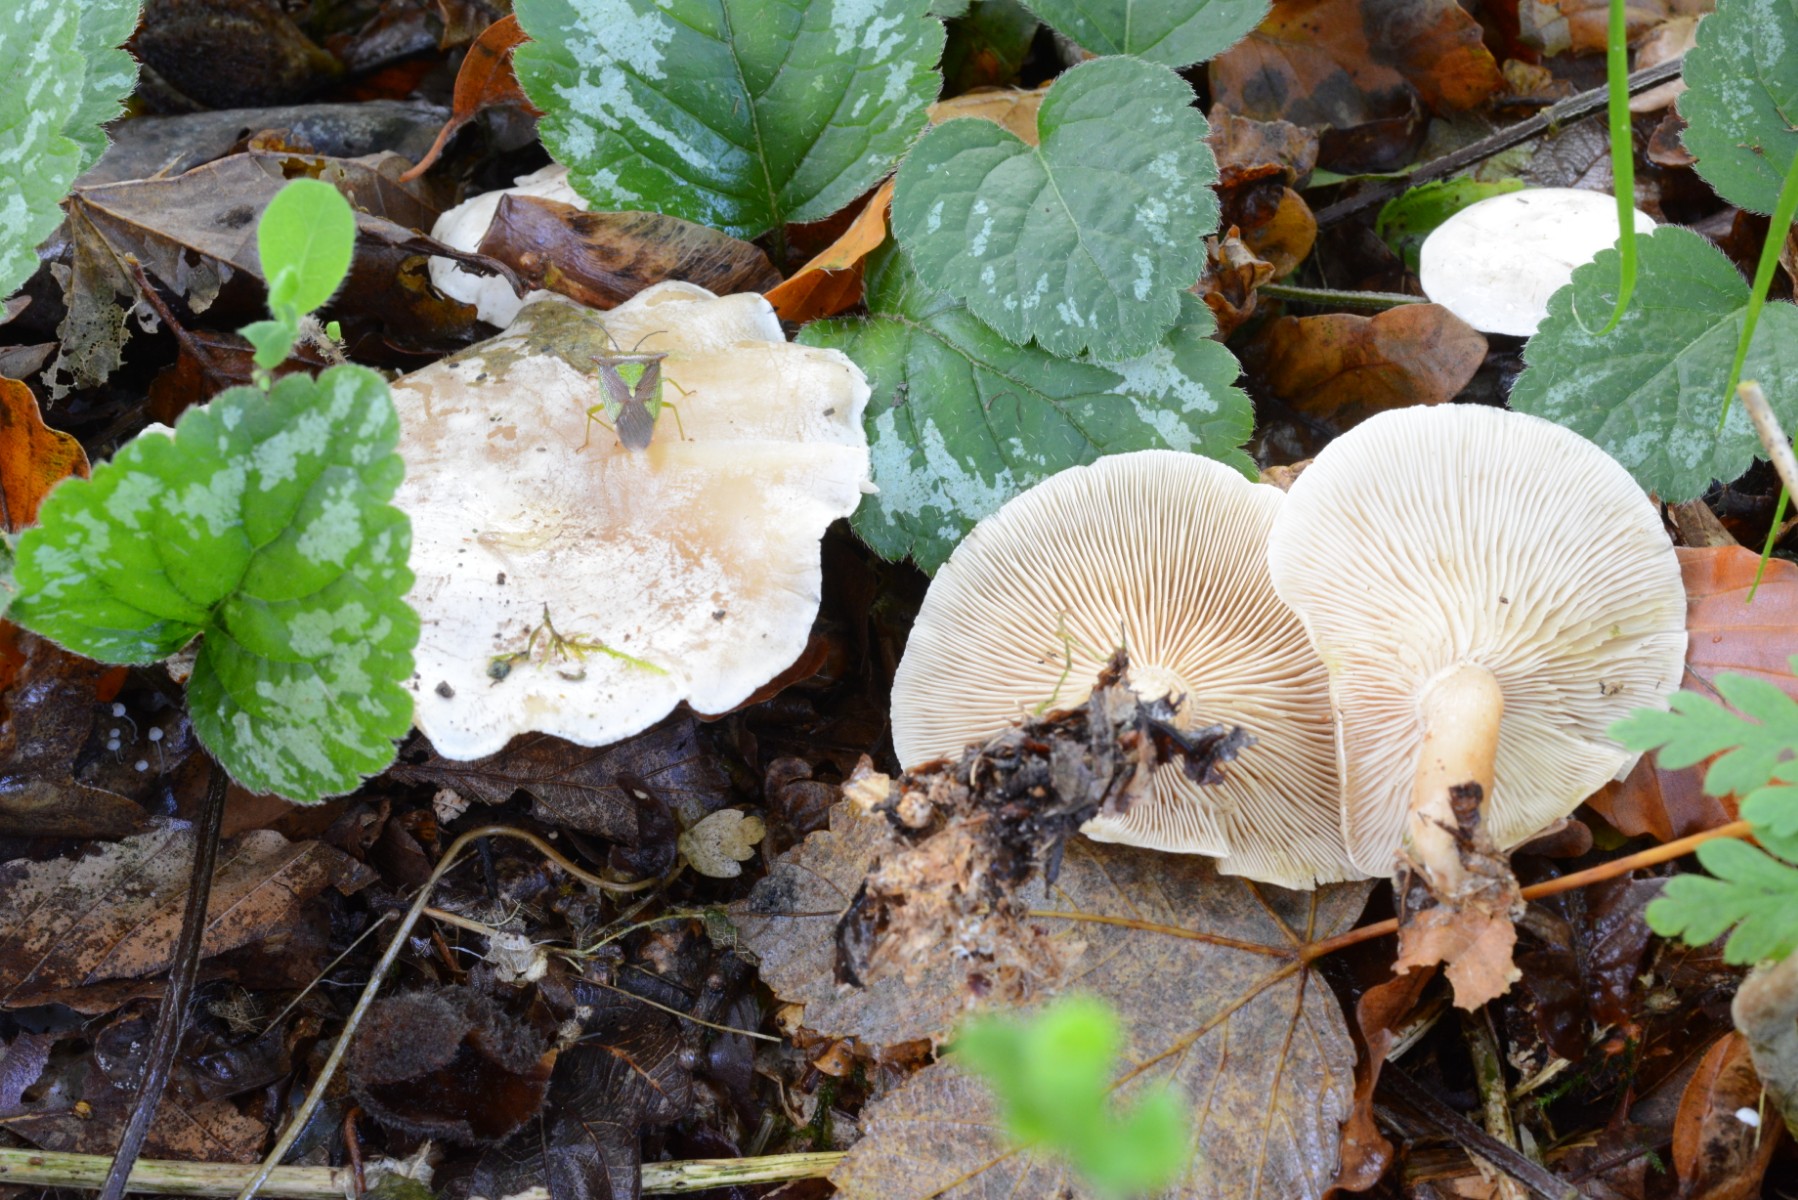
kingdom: Fungi
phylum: Basidiomycota
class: Agaricomycetes
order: Agaricales
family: Tricholomataceae
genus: Clitocybe
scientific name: Clitocybe phyllophila
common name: løv-tragthat
